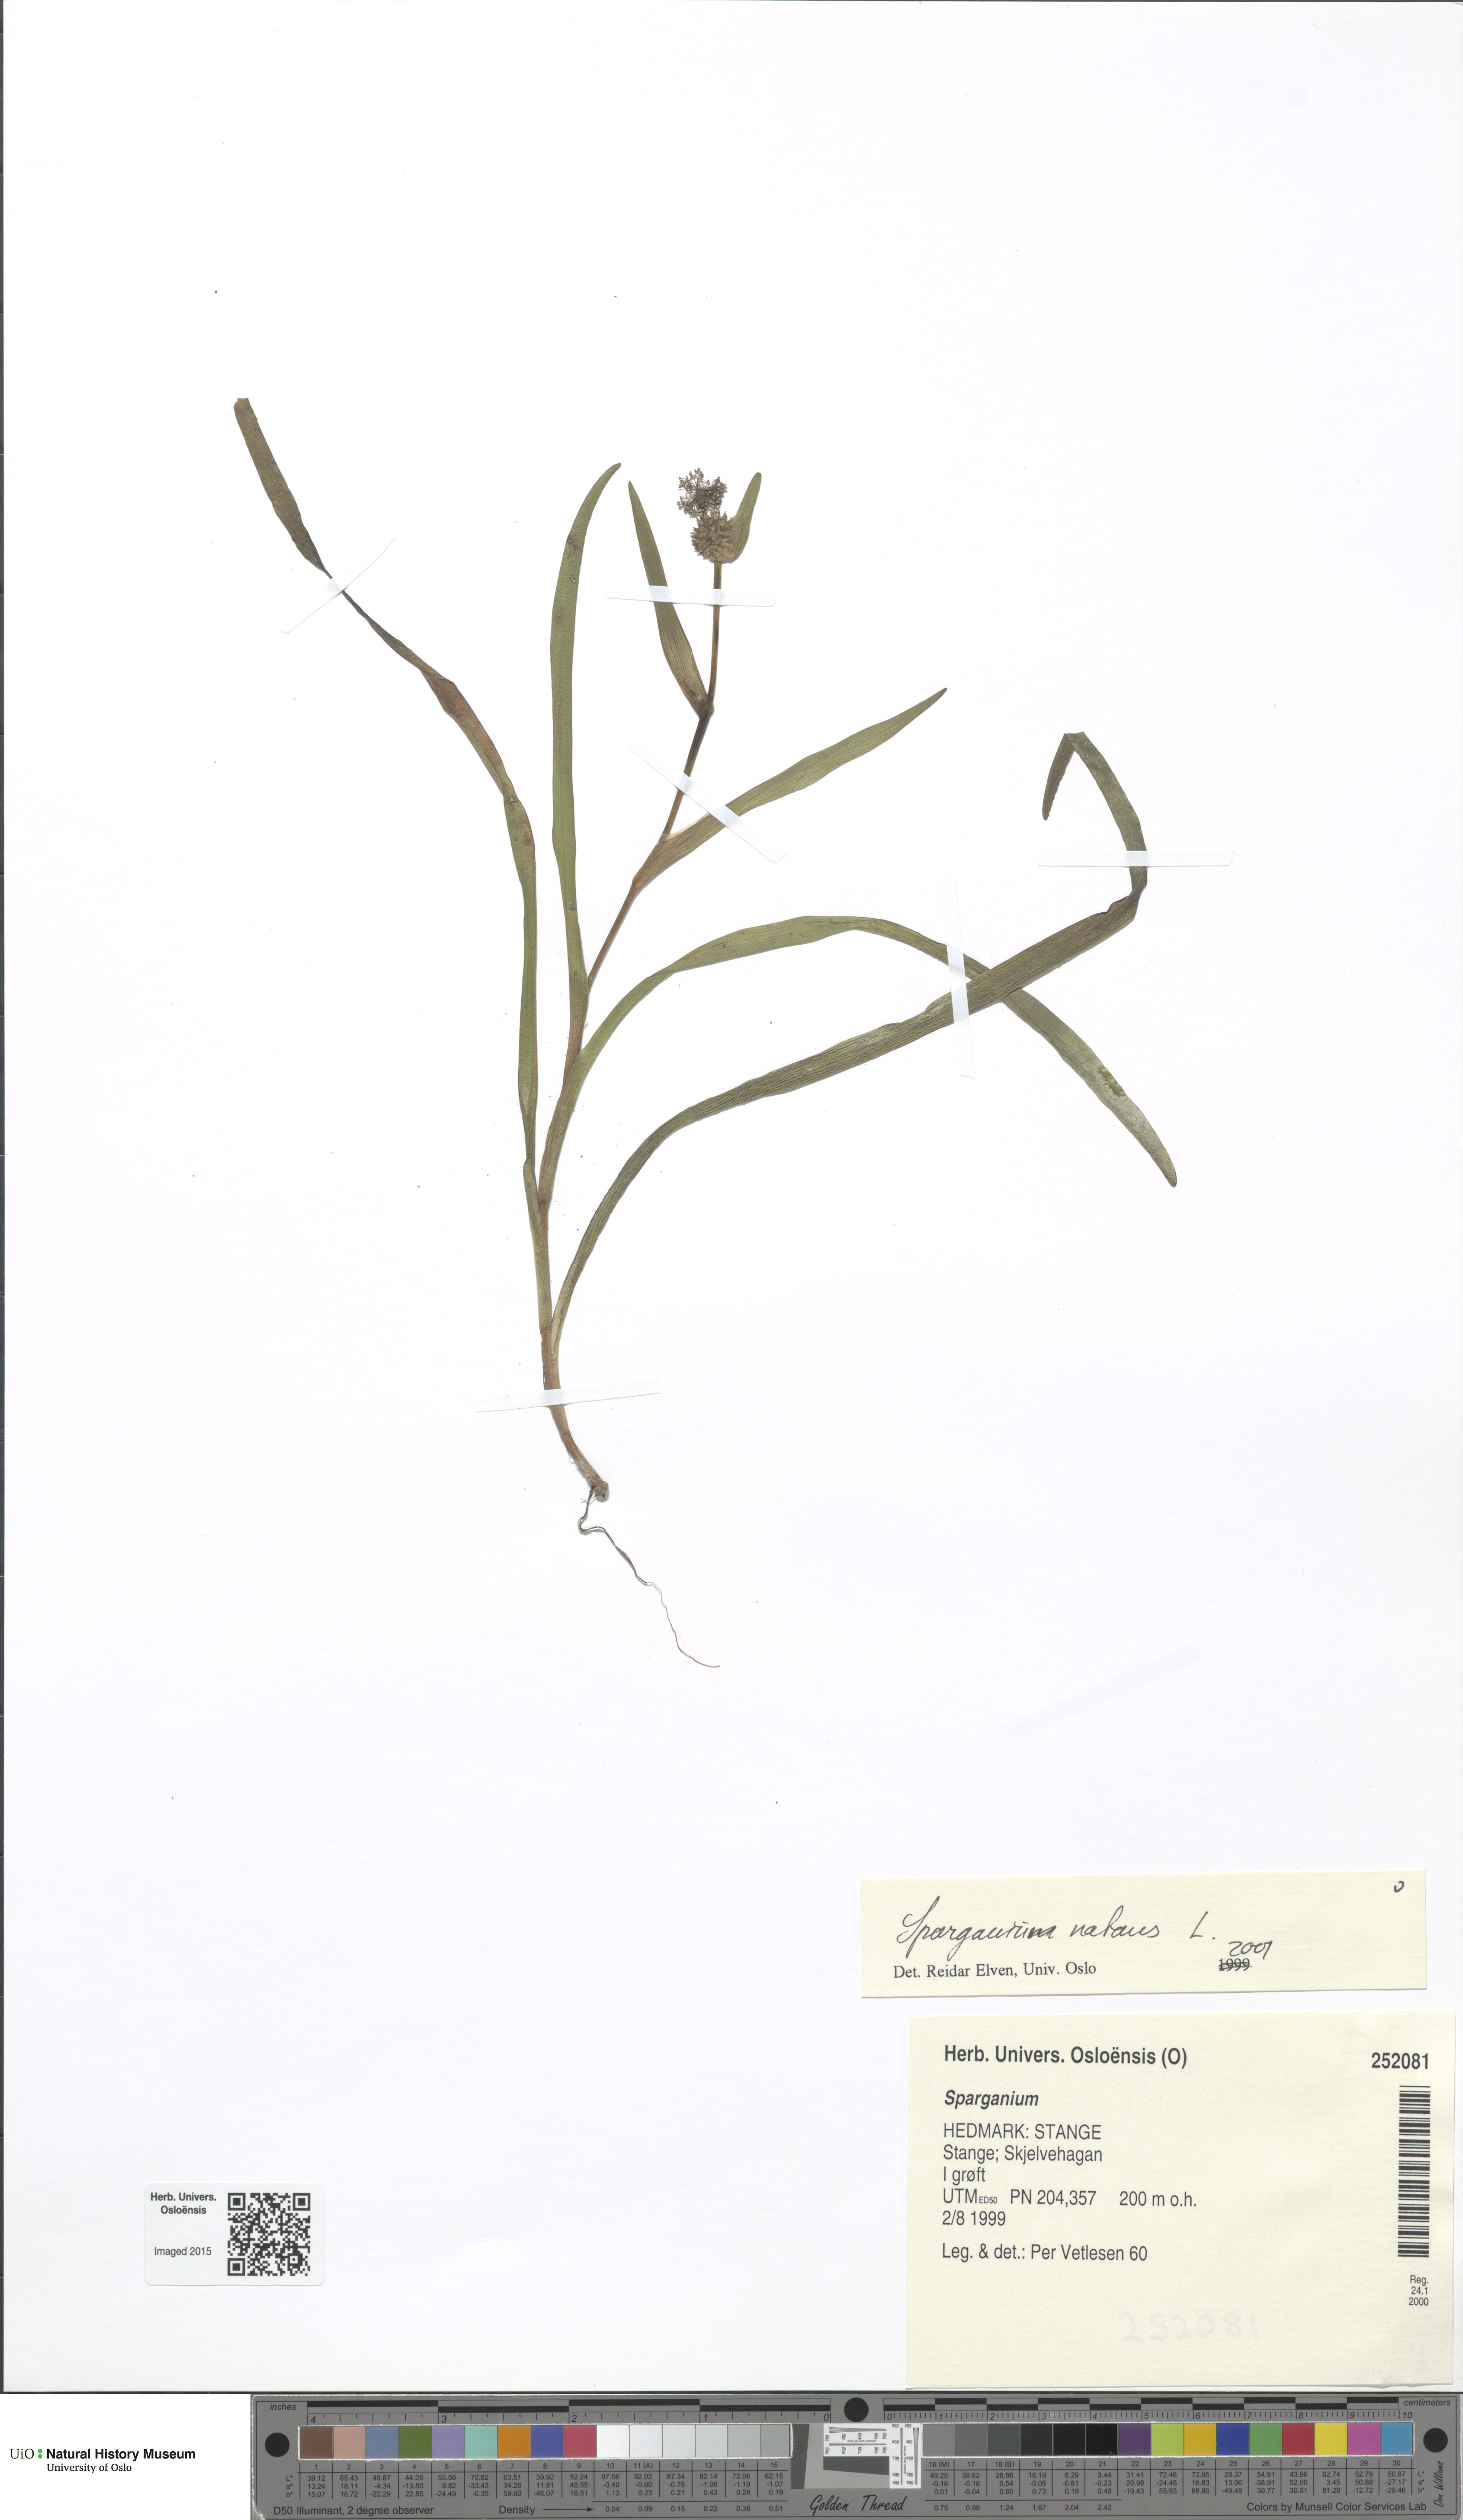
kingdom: Plantae
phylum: Tracheophyta
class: Liliopsida
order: Poales
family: Typhaceae
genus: Sparganium
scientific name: Sparganium natans
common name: Least bur-reed
